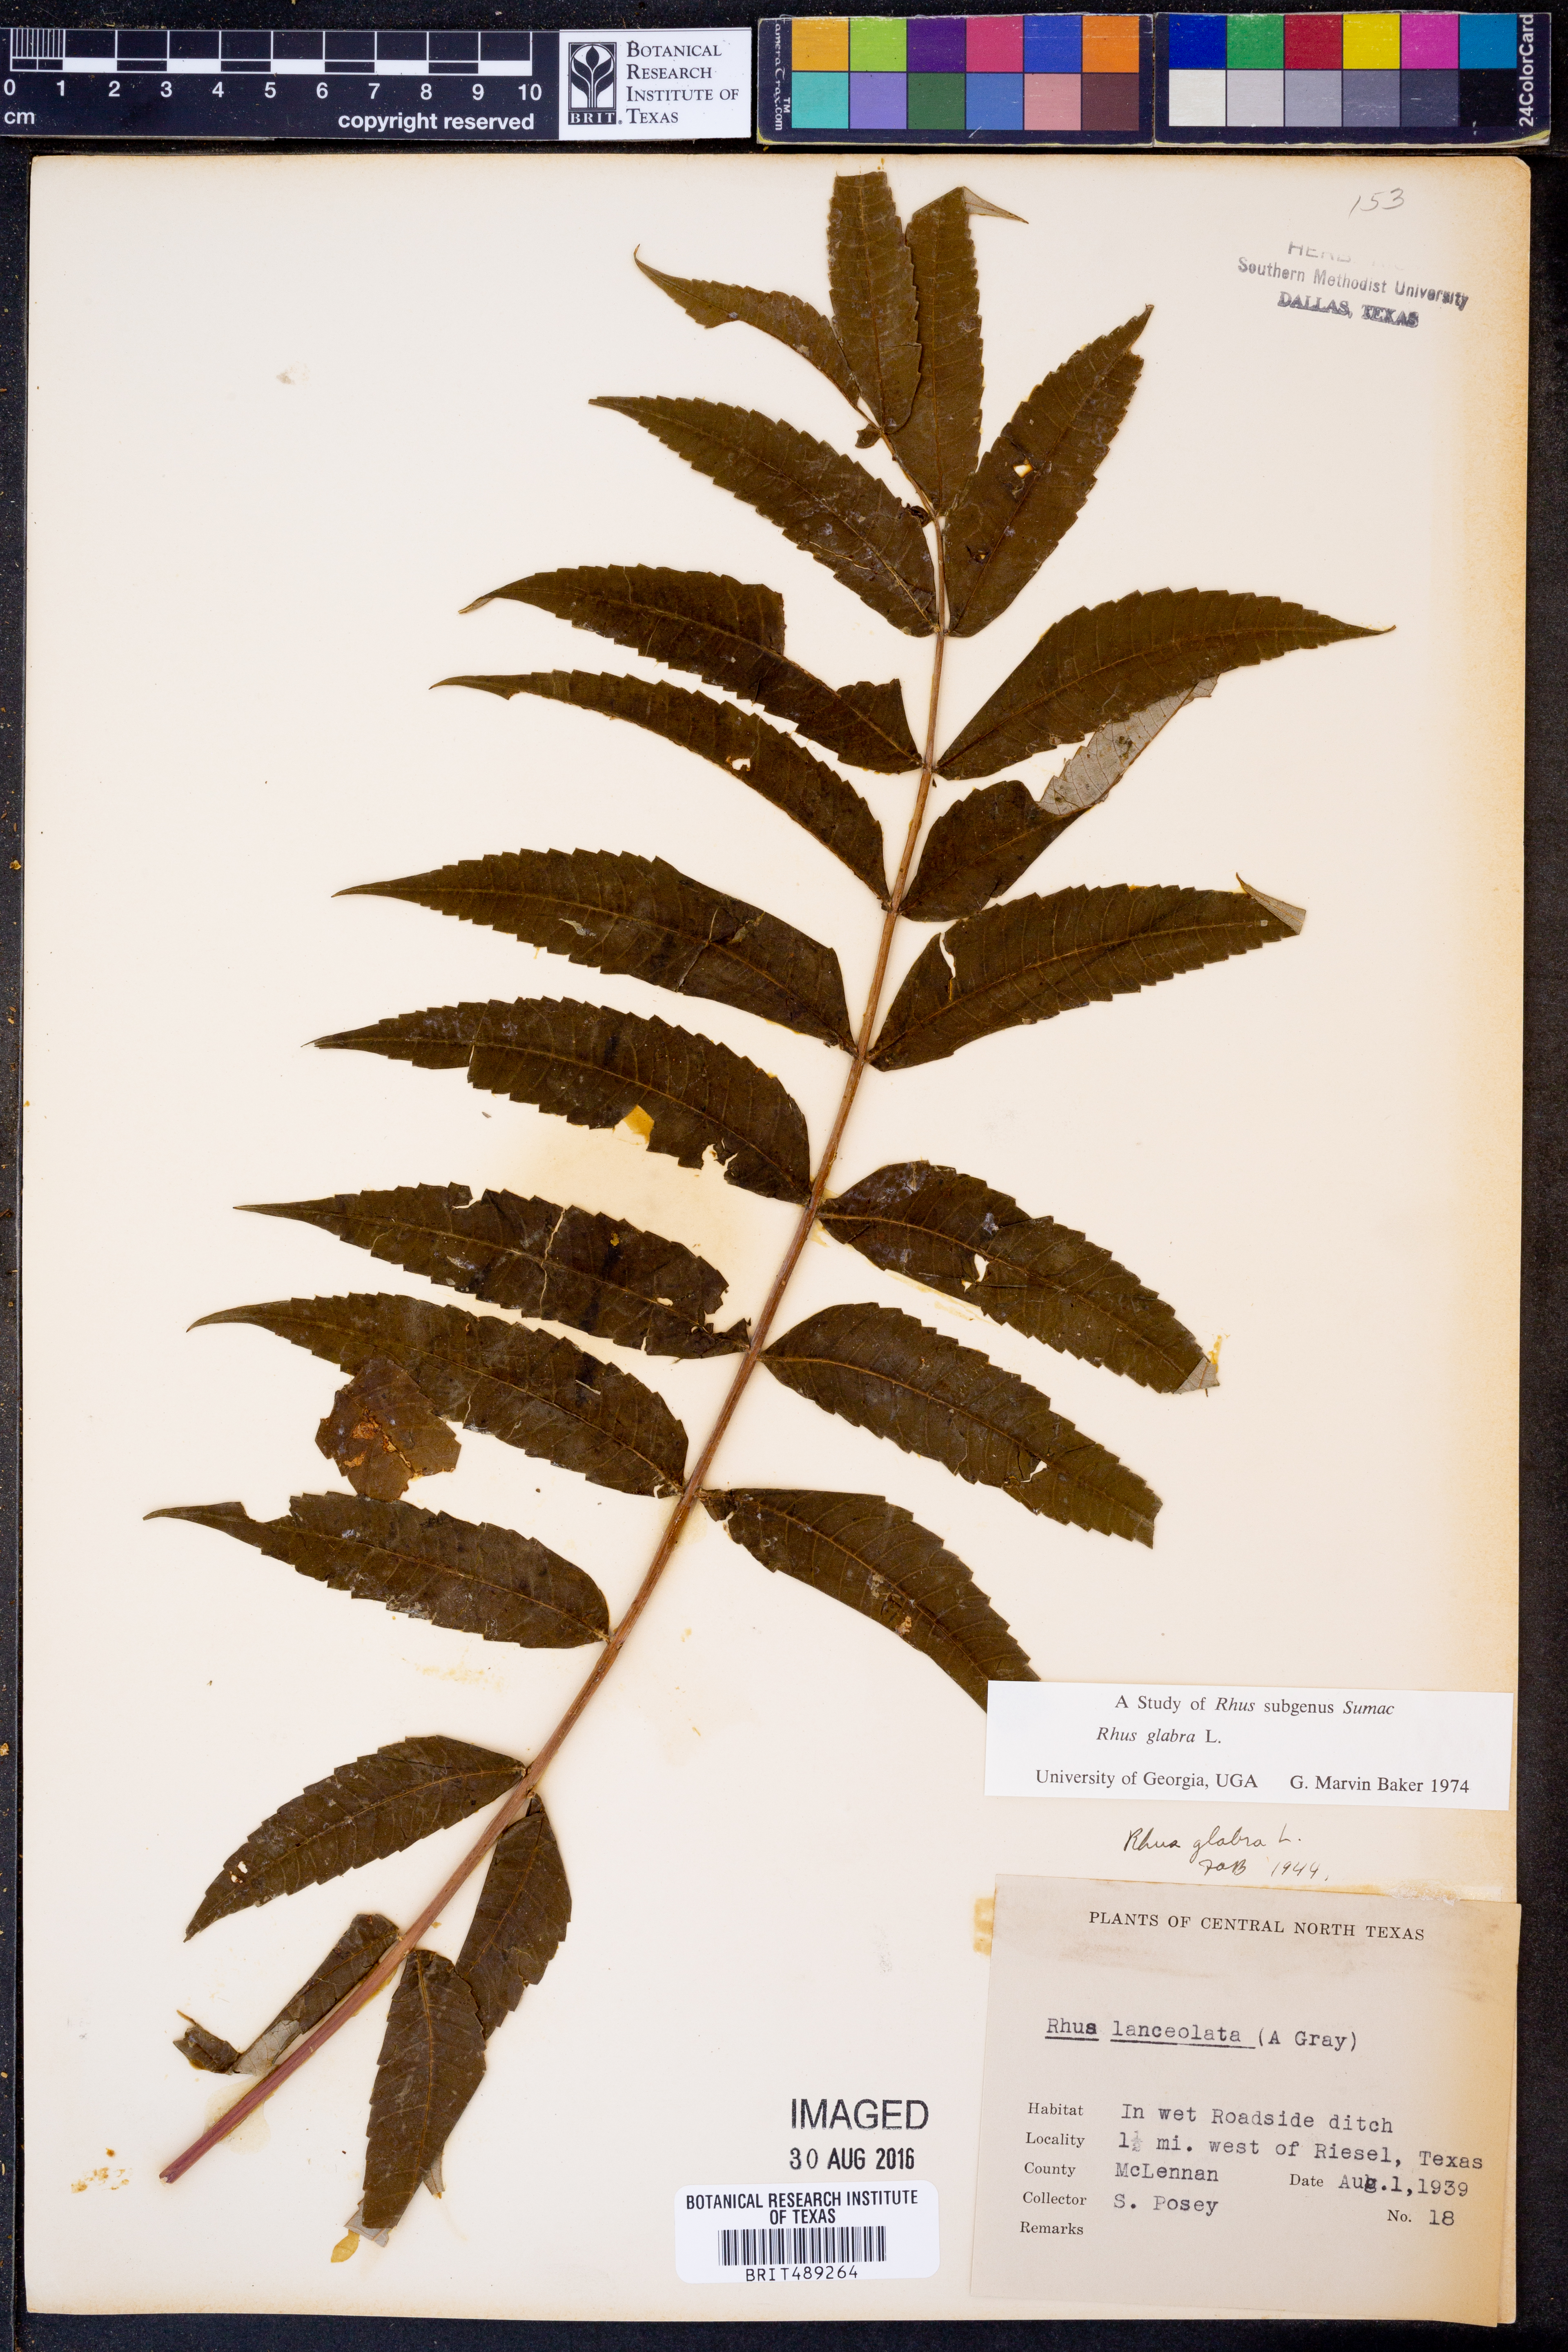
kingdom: Plantae
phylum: Tracheophyta
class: Magnoliopsida
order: Sapindales
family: Anacardiaceae
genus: Rhus
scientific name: Rhus glabra
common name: Scarlet sumac
